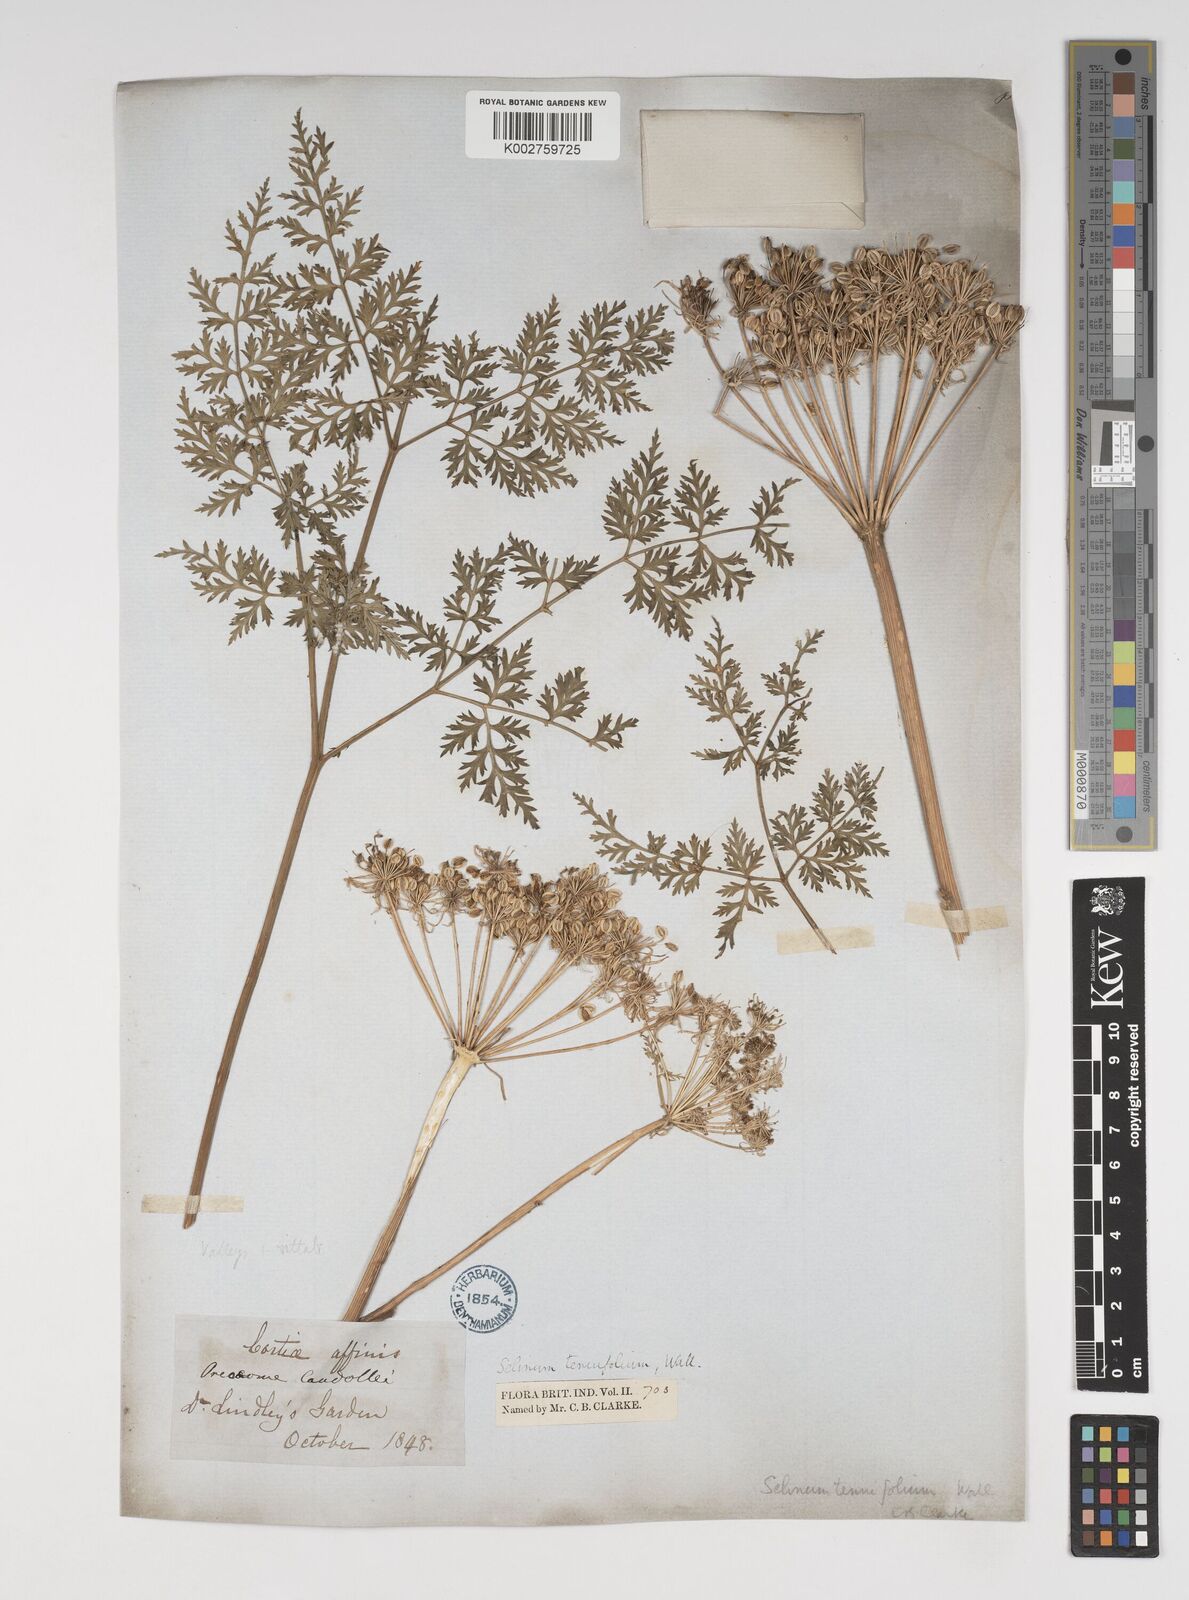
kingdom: Plantae
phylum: Tracheophyta
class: Magnoliopsida
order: Apiales
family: Apiaceae
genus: Selinum
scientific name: Selinum carvifolia
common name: Cambridge milk-parsley
